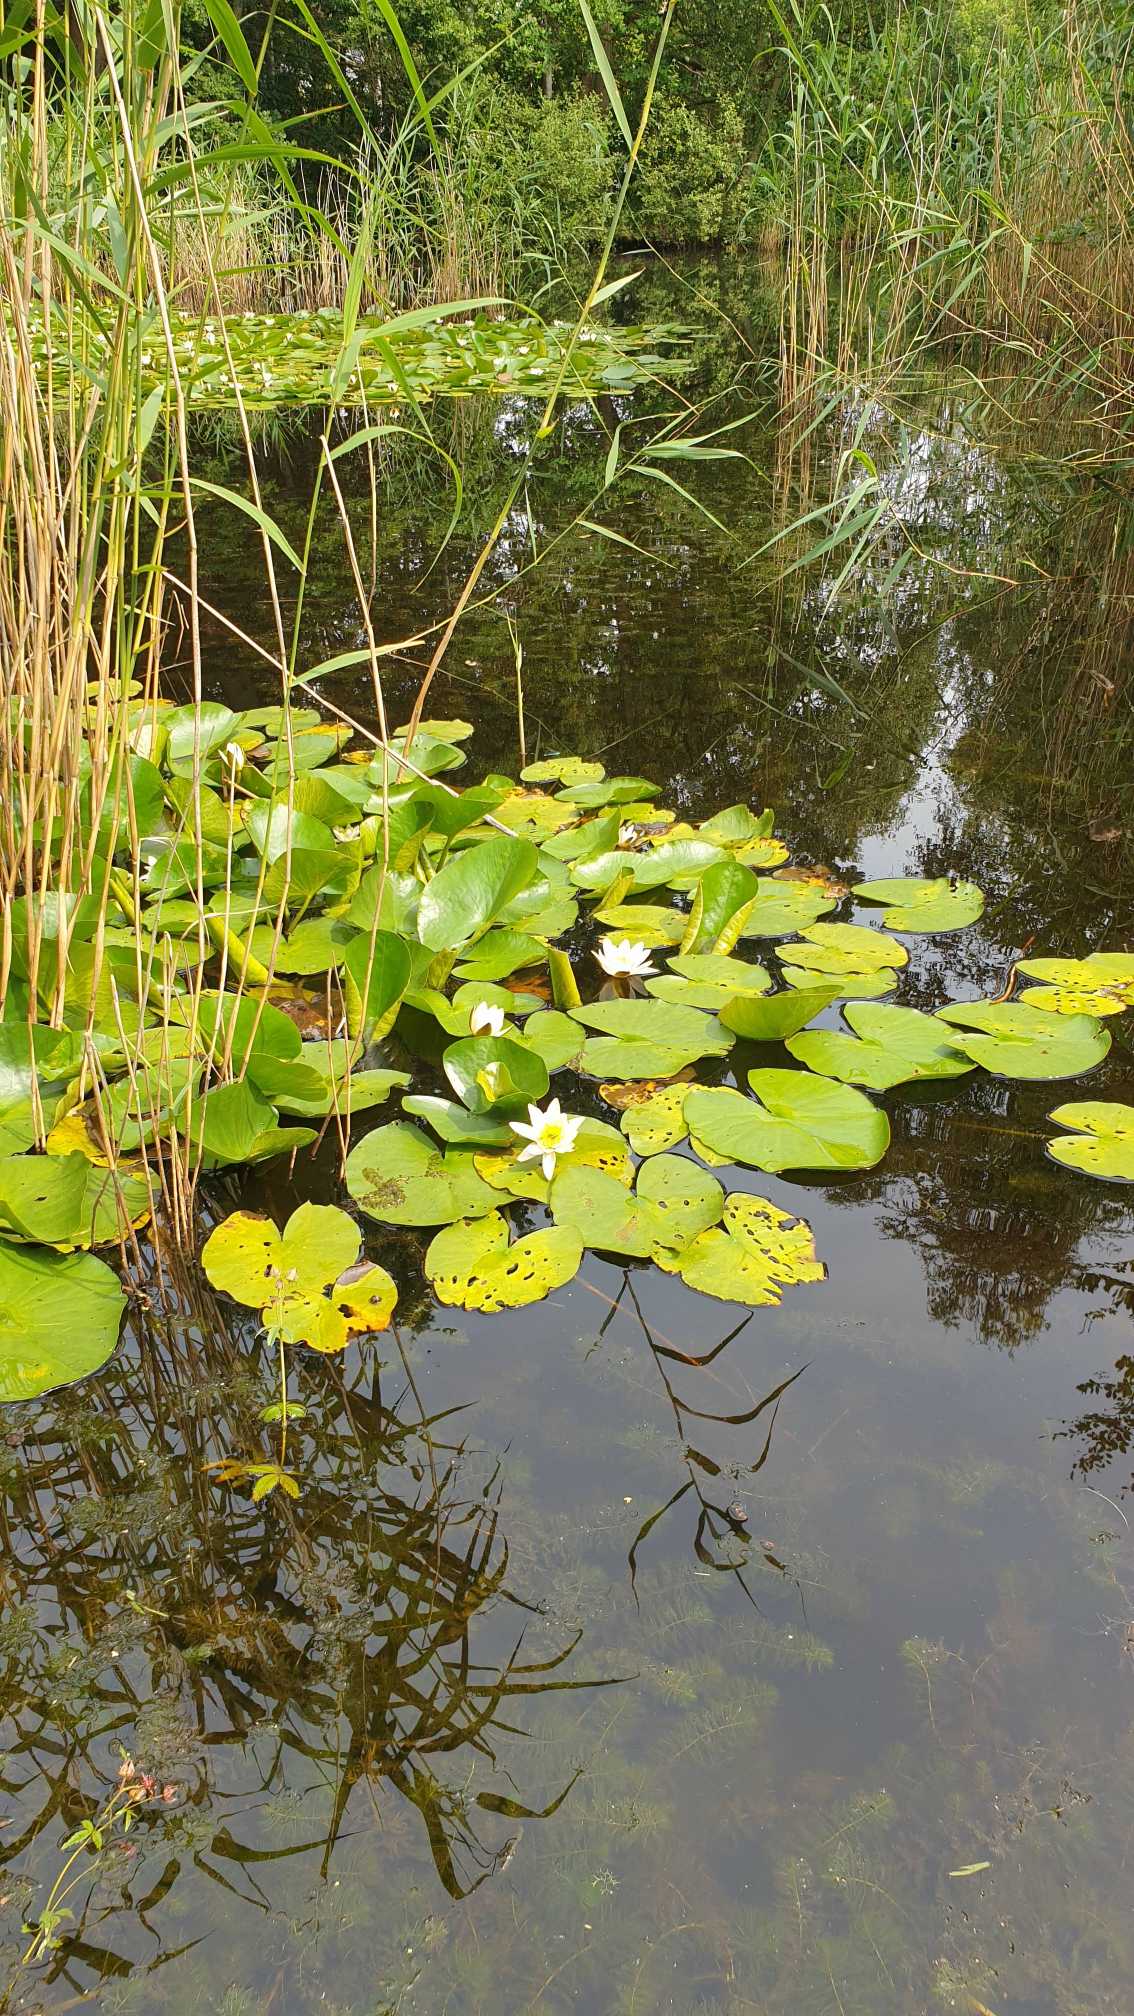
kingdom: Plantae
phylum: Tracheophyta
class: Magnoliopsida
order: Nymphaeales
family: Nymphaeaceae
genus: Nymphaea
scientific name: Nymphaea alba
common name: Hvid åkande
